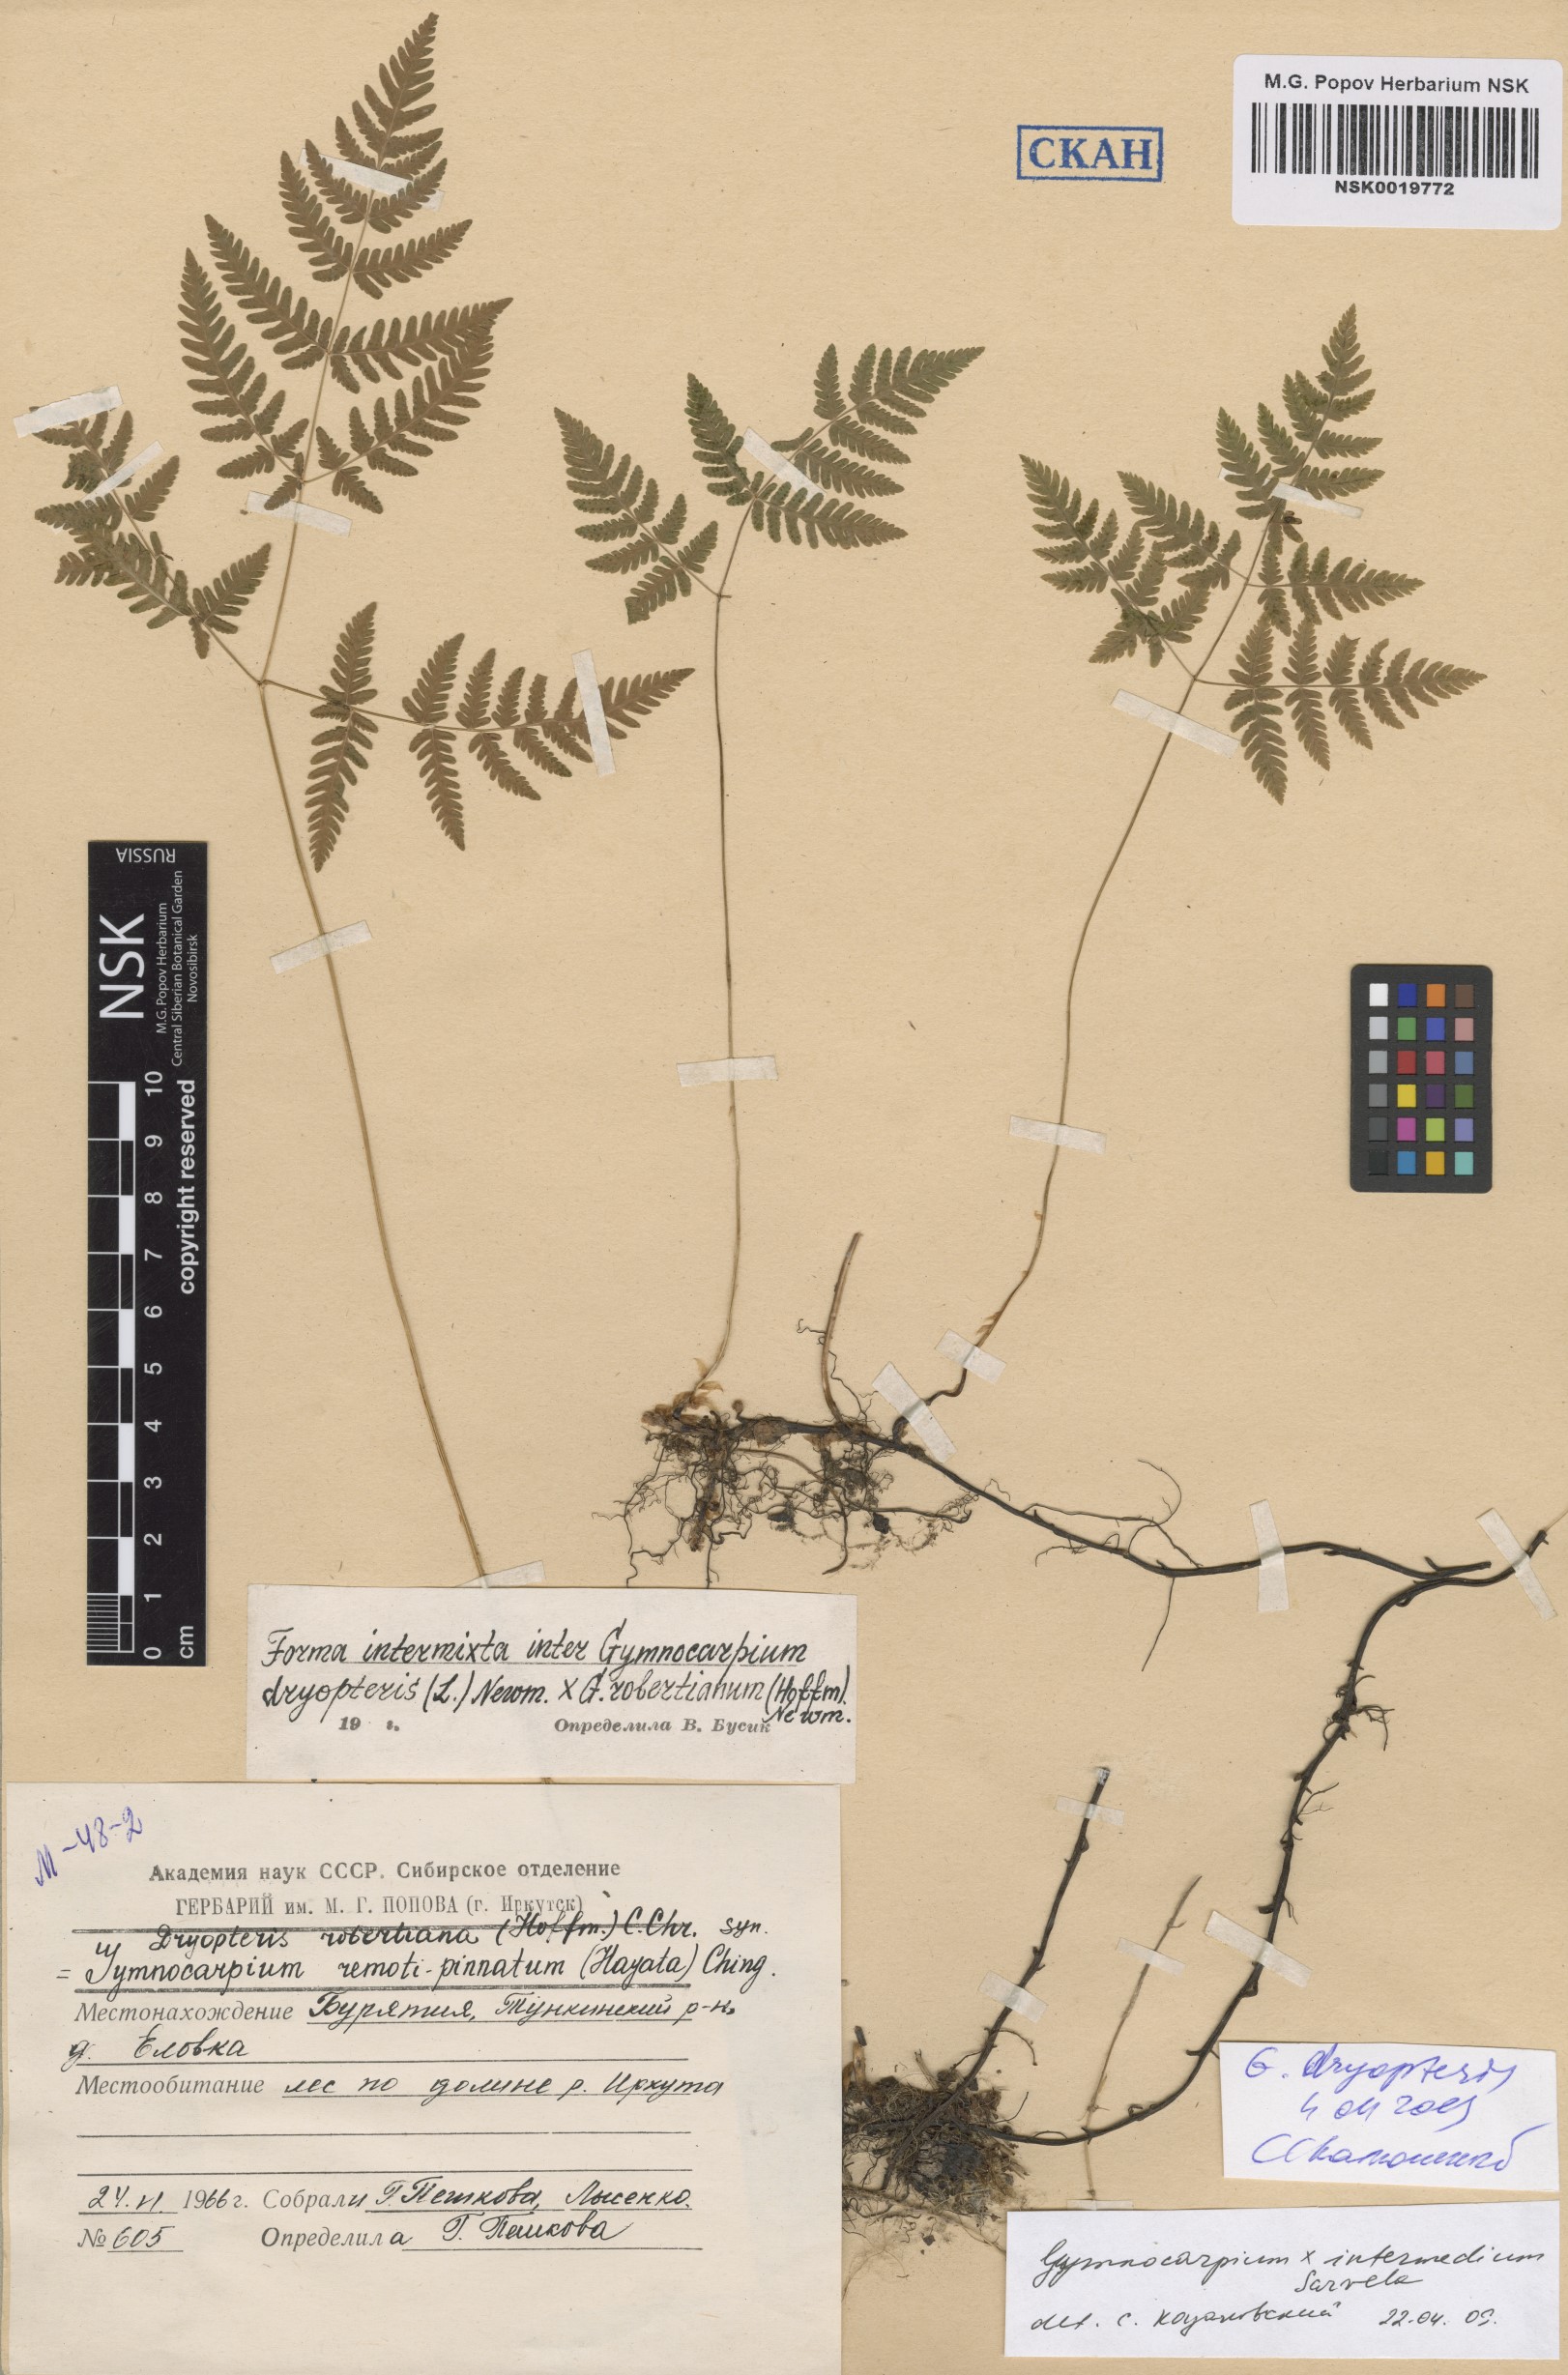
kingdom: Plantae
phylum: Tracheophyta
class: Polypodiopsida
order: Polypodiales
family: Cystopteridaceae
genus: Gymnocarpium
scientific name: Gymnocarpium dryopteris
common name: Oak fern
